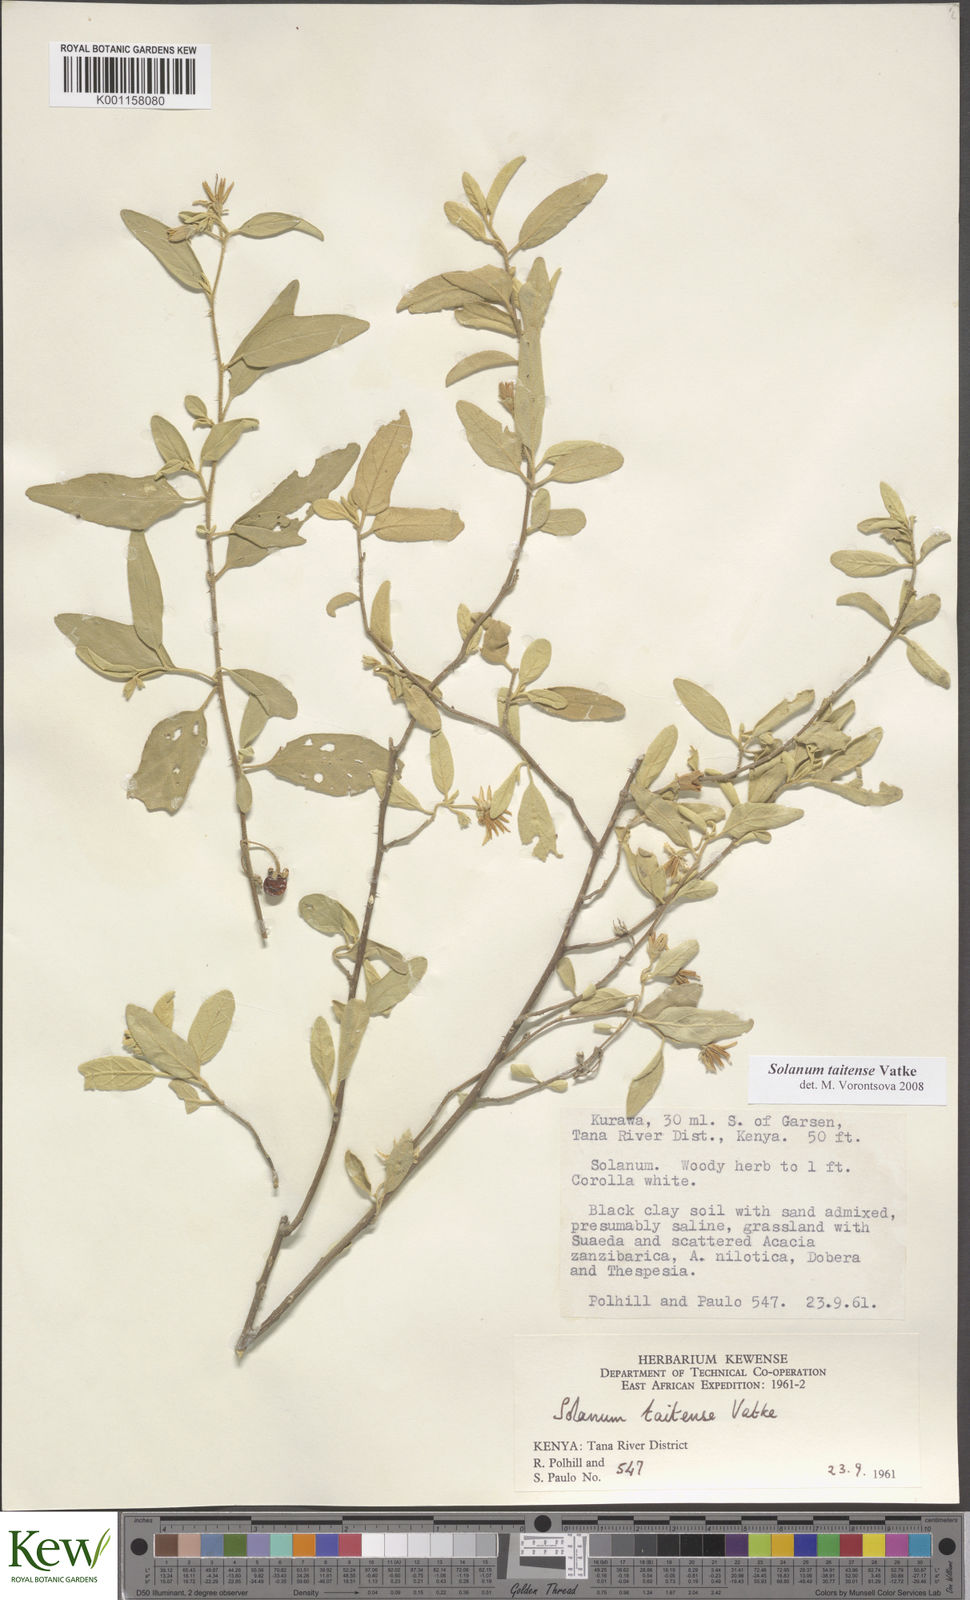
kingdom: Plantae
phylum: Tracheophyta
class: Magnoliopsida
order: Solanales
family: Solanaceae
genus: Solanum
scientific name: Solanum taitense
